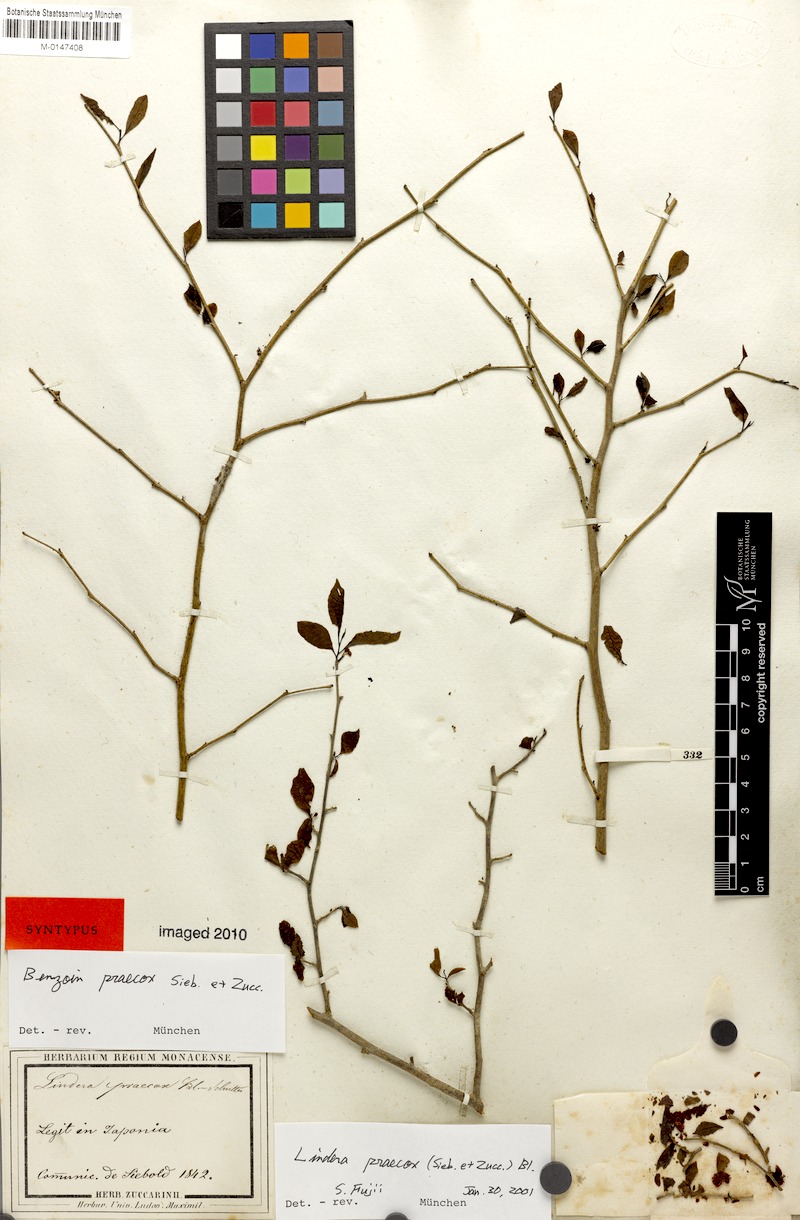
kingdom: Plantae
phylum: Tracheophyta
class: Magnoliopsida
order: Laurales
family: Lauraceae
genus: Lindera
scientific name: Lindera praecox
